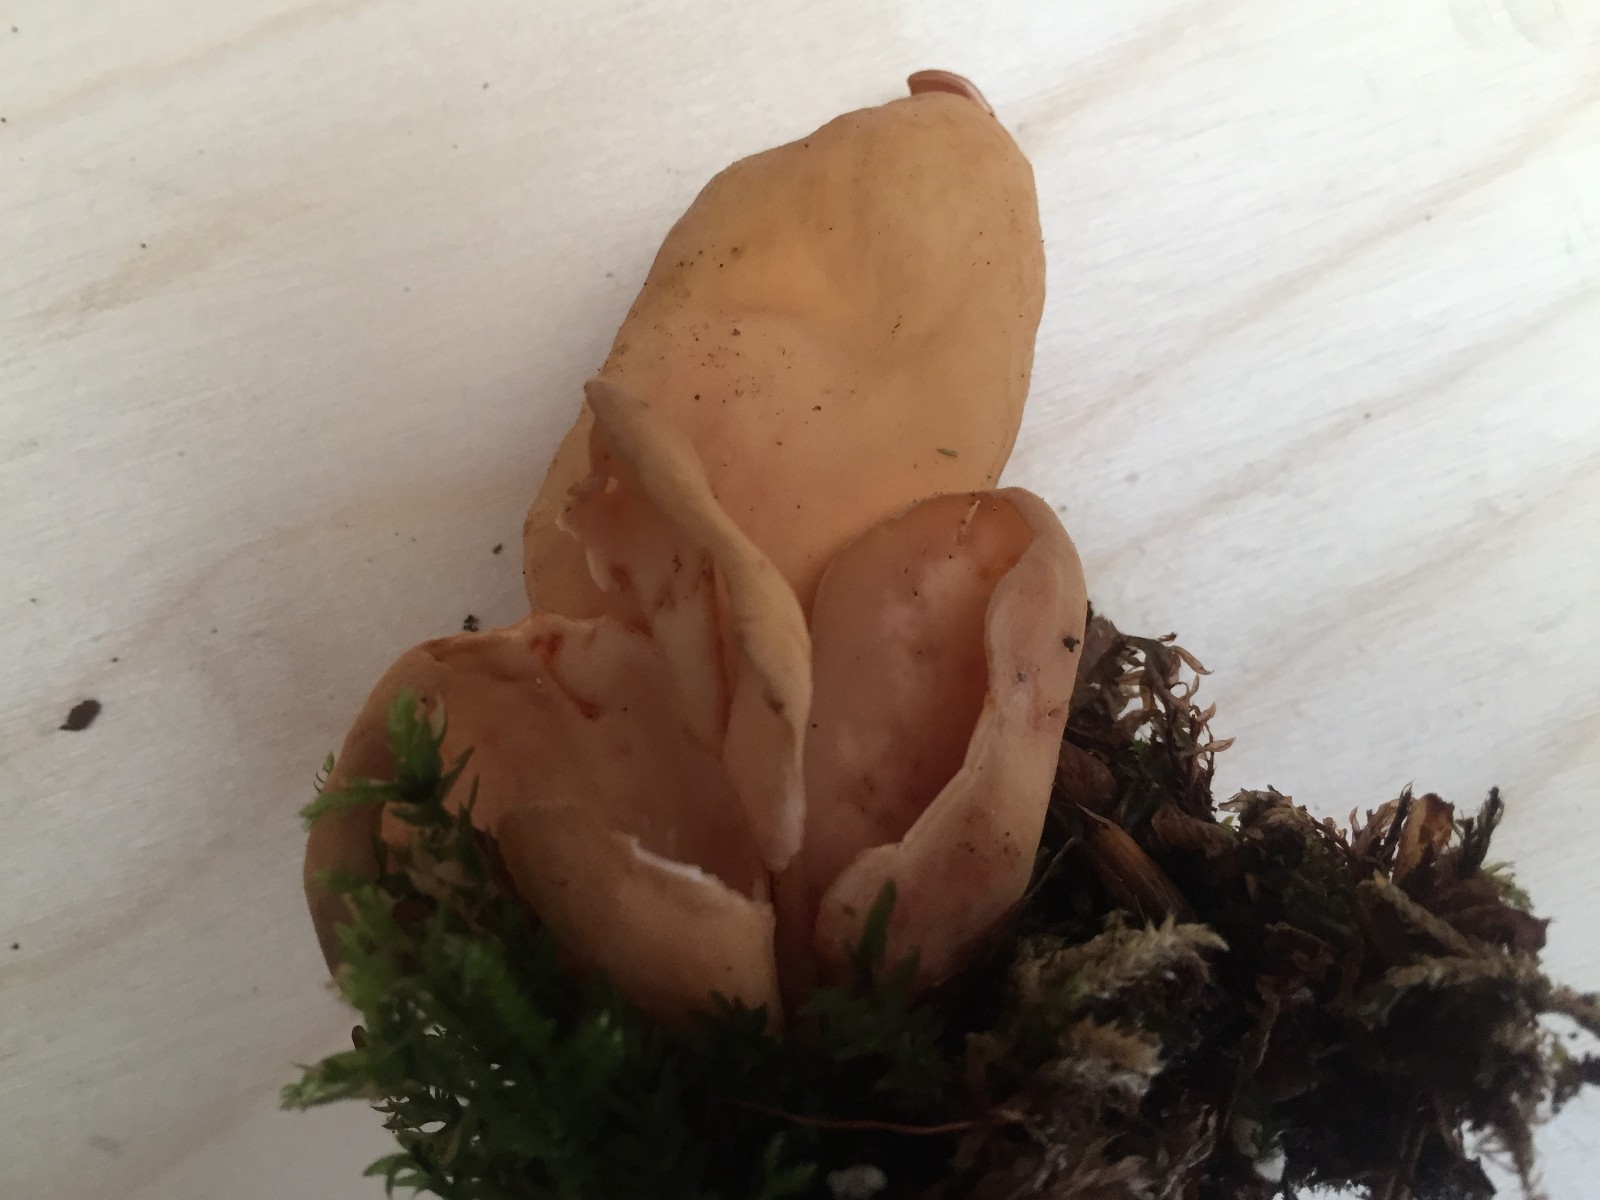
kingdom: Fungi
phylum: Ascomycota
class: Pezizomycetes
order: Pezizales
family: Otideaceae
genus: Otidea
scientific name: Otidea onotica
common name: æsel-ørebæger
